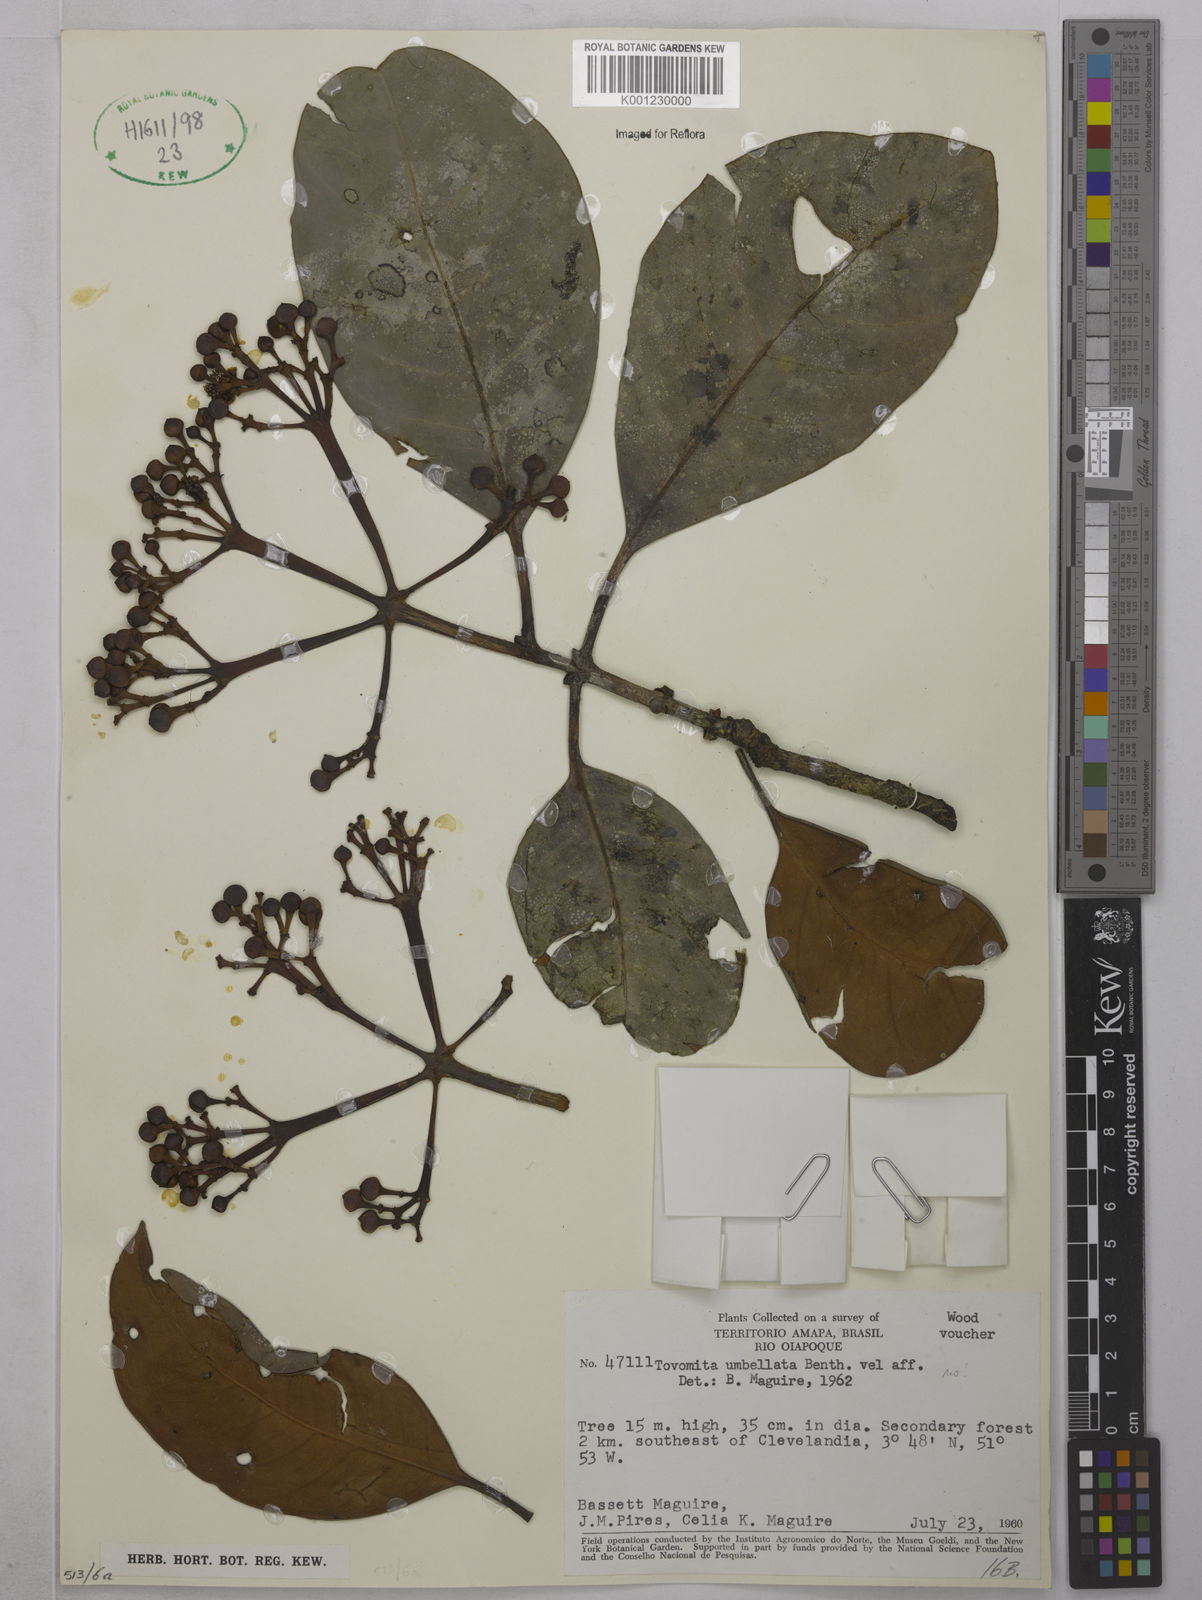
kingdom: Plantae
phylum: Tracheophyta
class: Magnoliopsida
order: Malpighiales
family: Clusiaceae
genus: Tovomita
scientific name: Tovomita fanshawei
